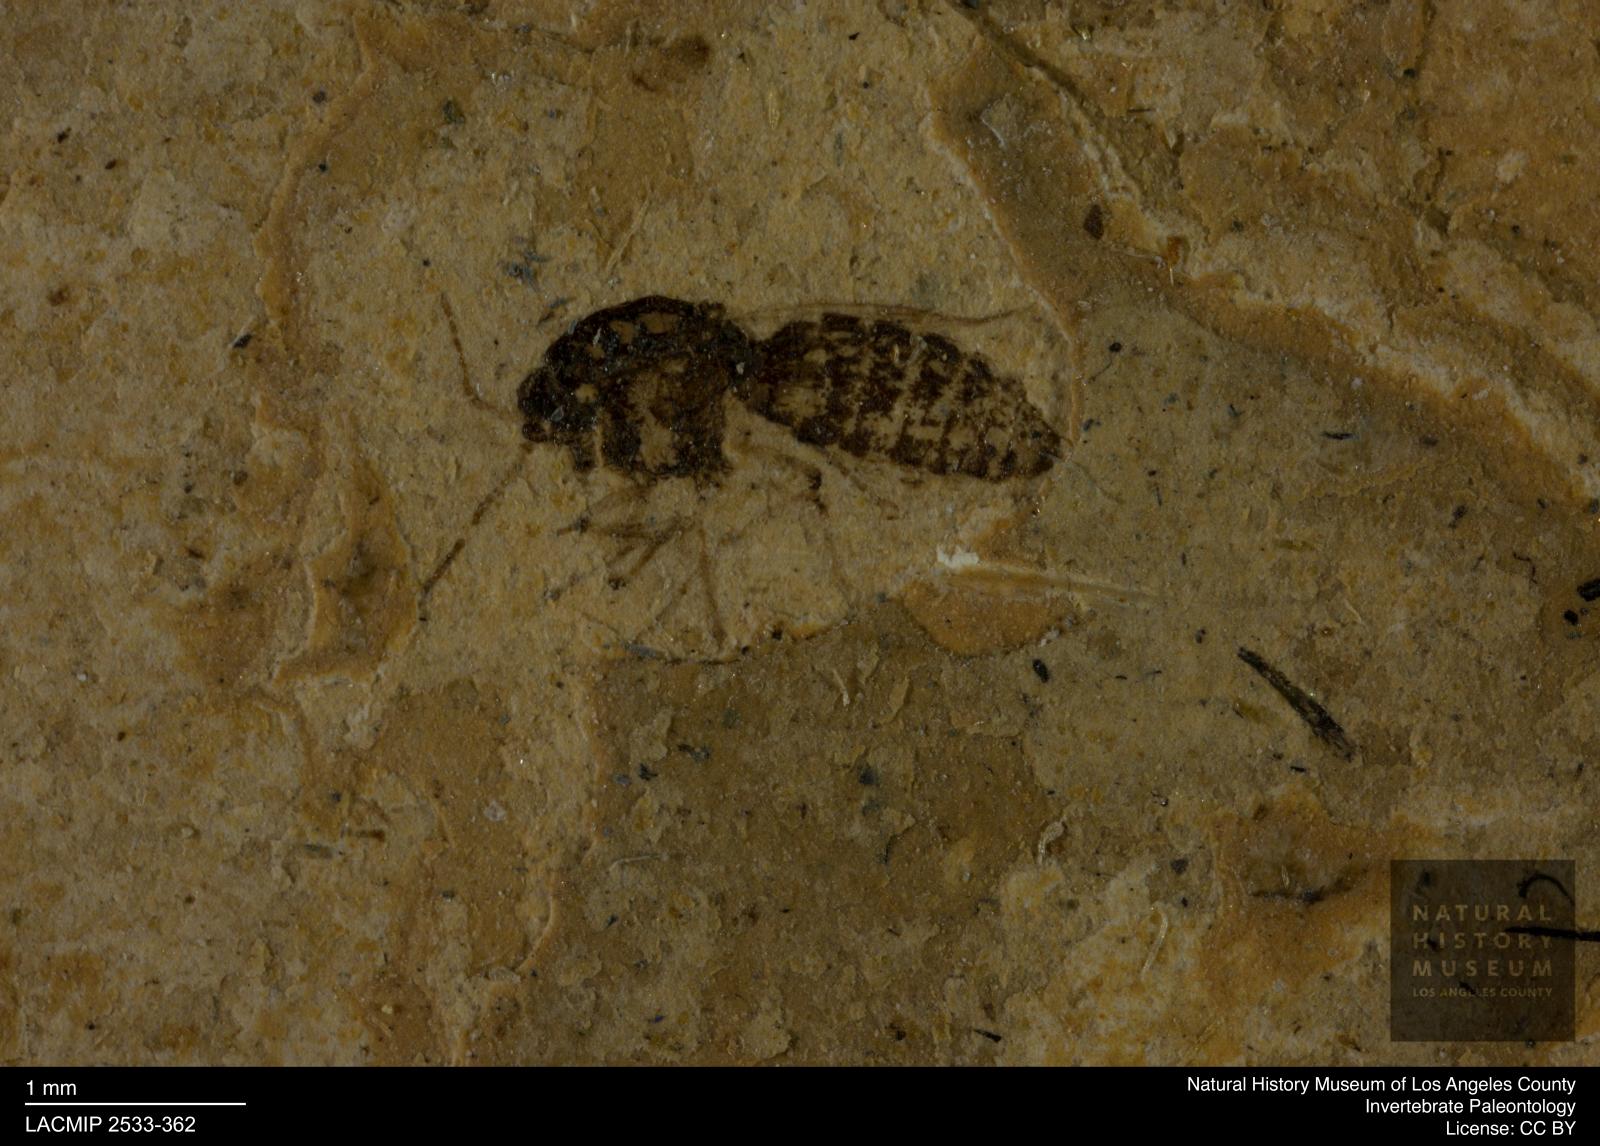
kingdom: Animalia
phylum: Arthropoda
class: Insecta
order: Diptera
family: Ceratopogonidae
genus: Culicoides
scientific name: Culicoides elongatulus
